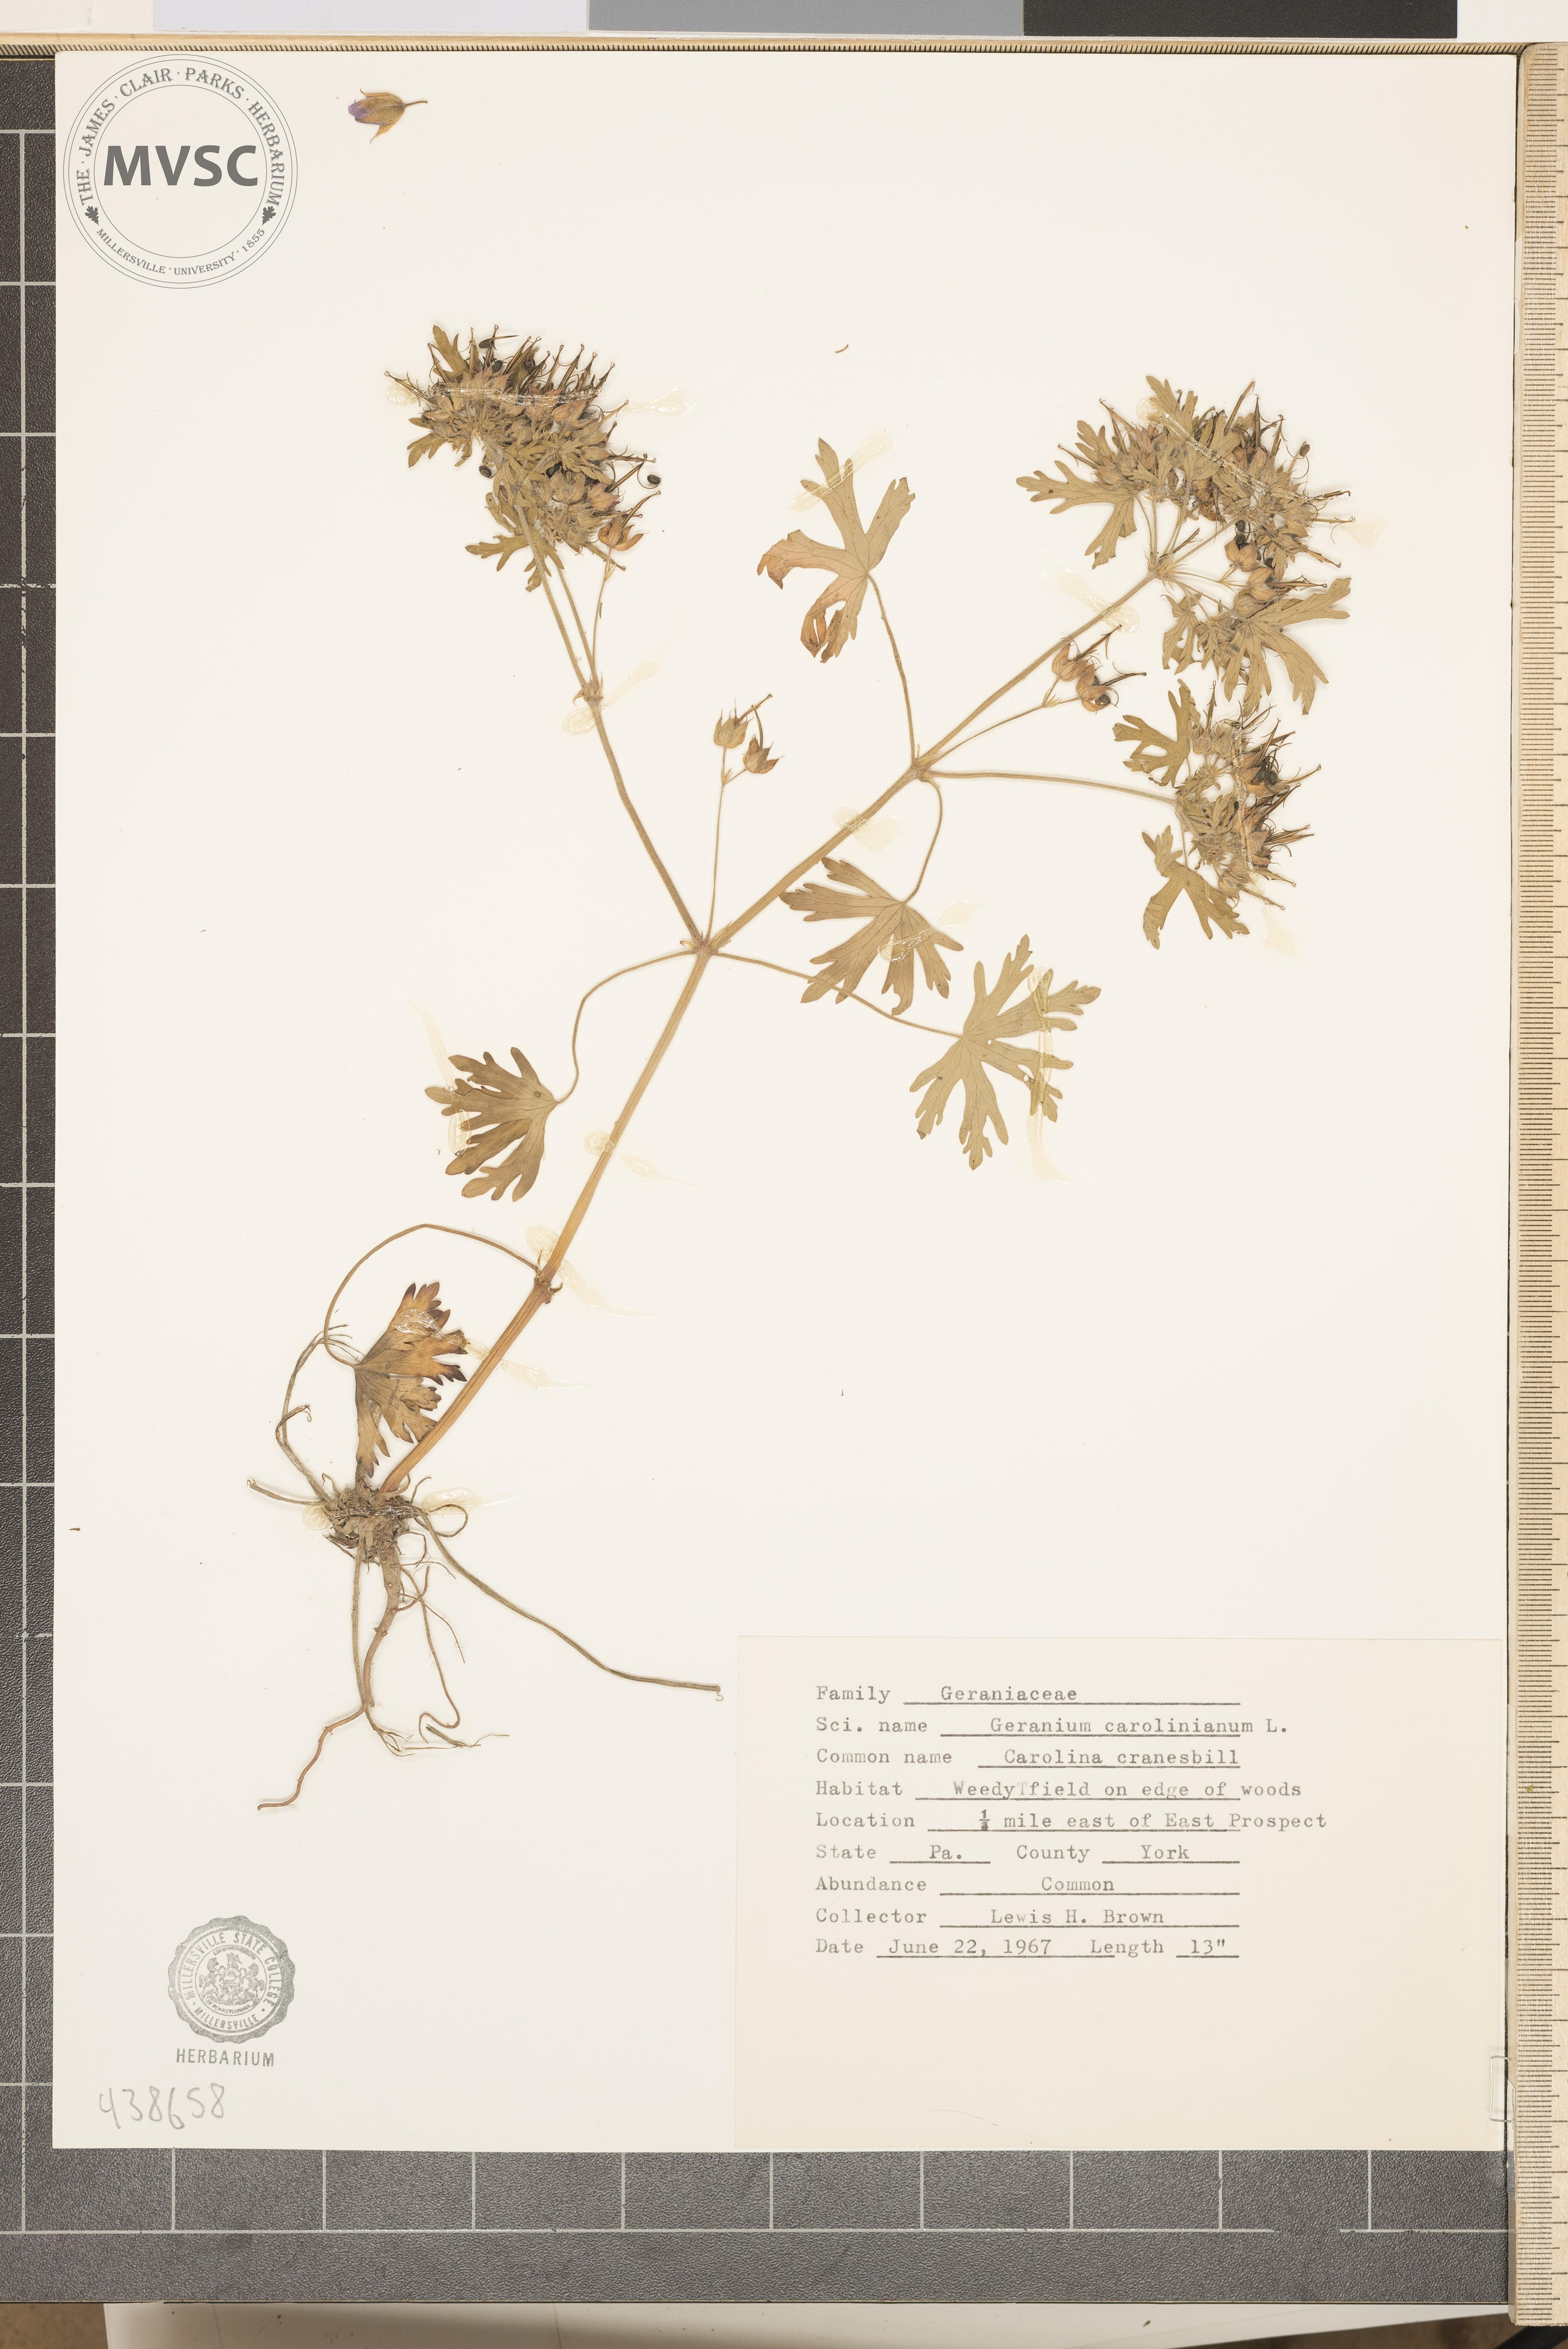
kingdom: Plantae
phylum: Tracheophyta
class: Magnoliopsida
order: Geraniales
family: Geraniaceae
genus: Geranium
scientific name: Geranium carolinianum
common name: Carolina crane's-bill
